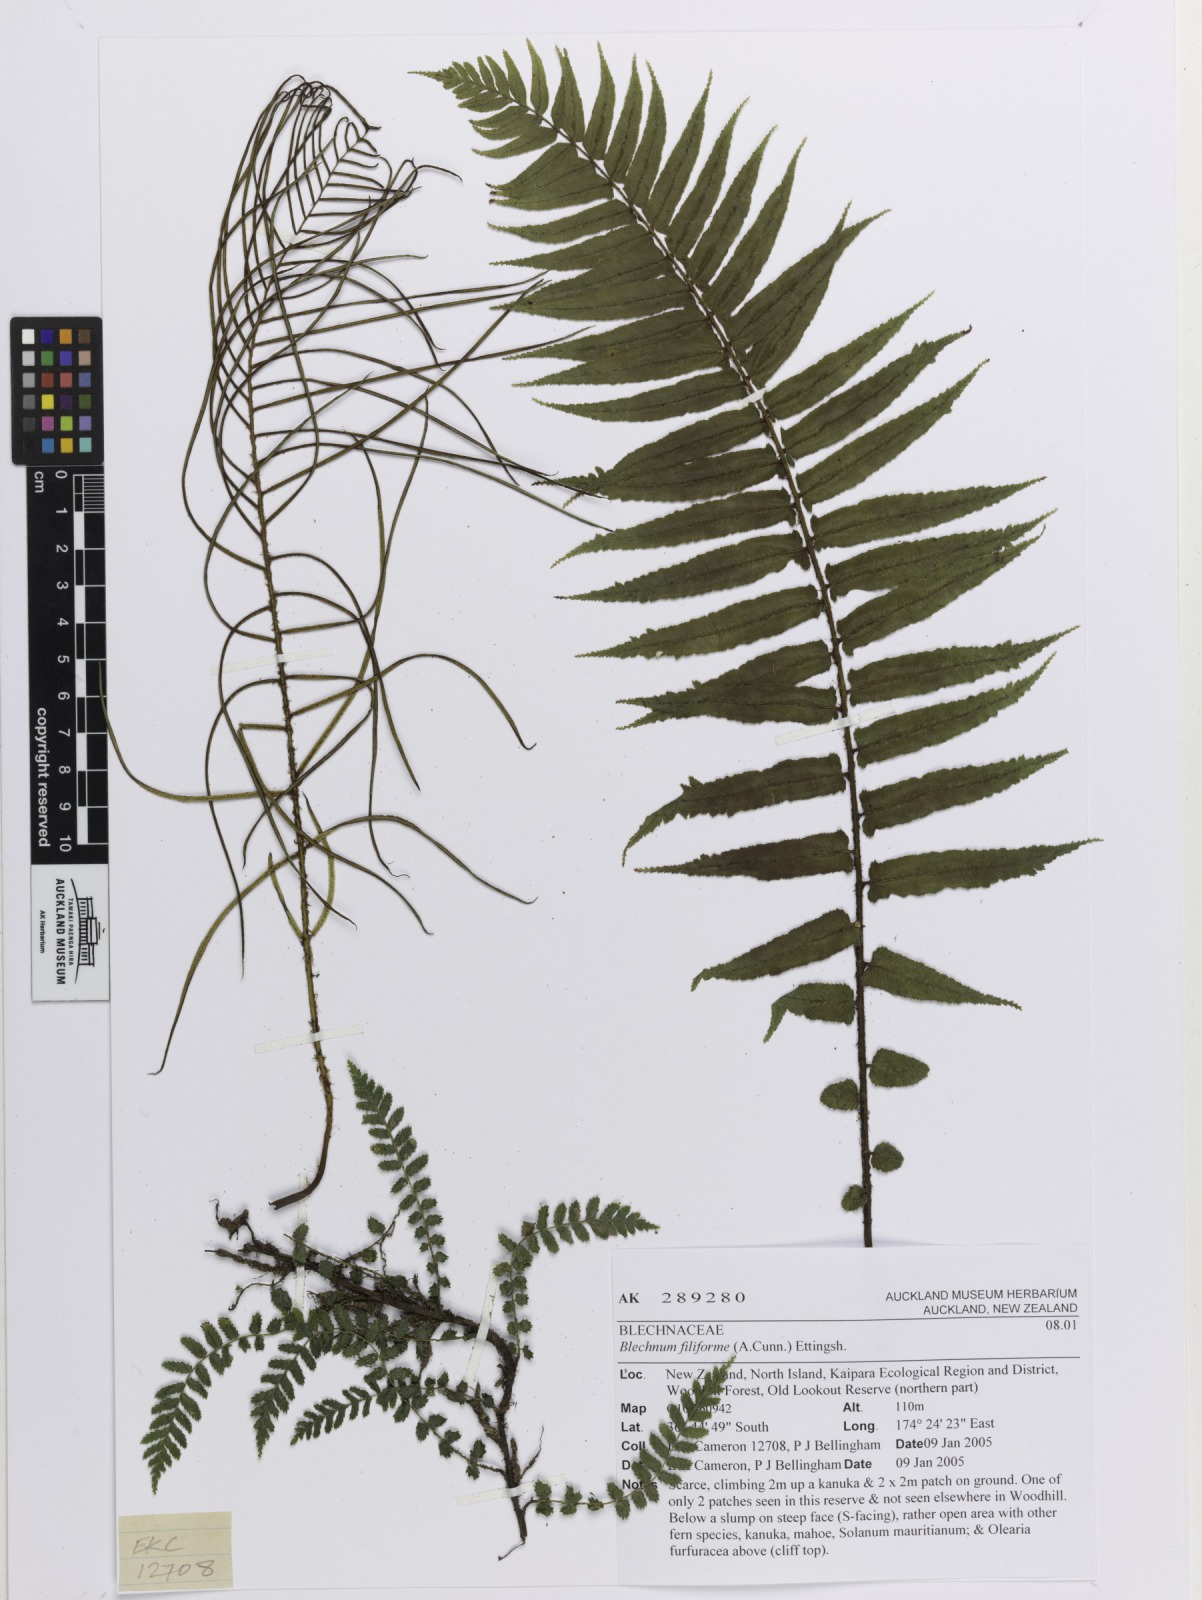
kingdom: Plantae
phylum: Tracheophyta
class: Polypodiopsida
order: Polypodiales
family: Blechnaceae
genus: Icarus
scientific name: Icarus filiformis
